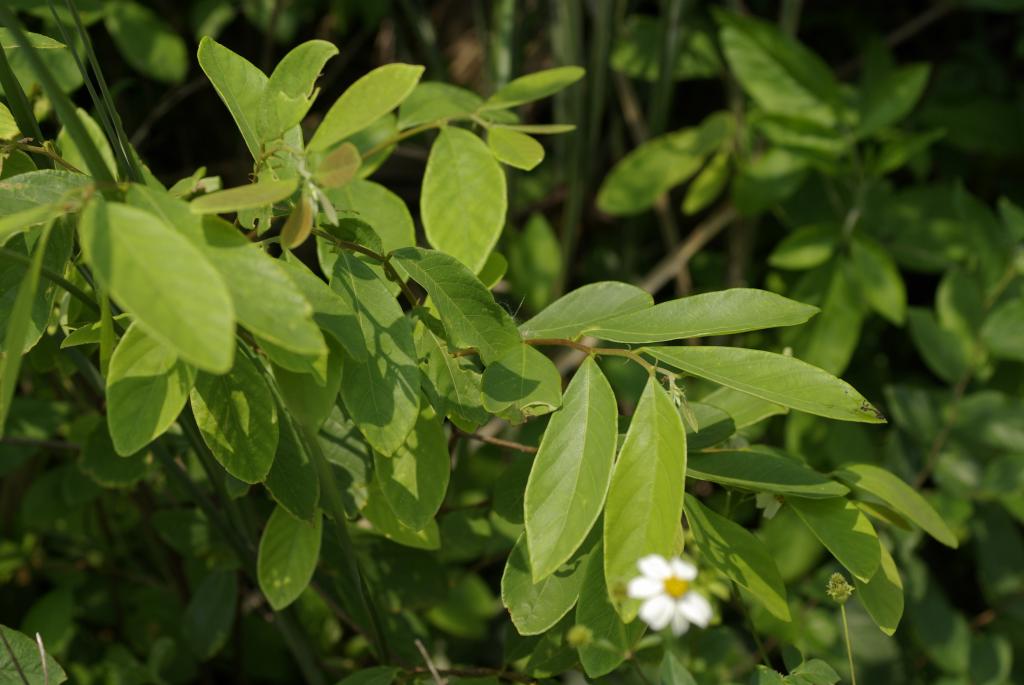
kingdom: Plantae
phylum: Tracheophyta
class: Magnoliopsida
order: Malpighiales
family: Phyllanthaceae
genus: Bridelia
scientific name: Bridelia tomentosa
